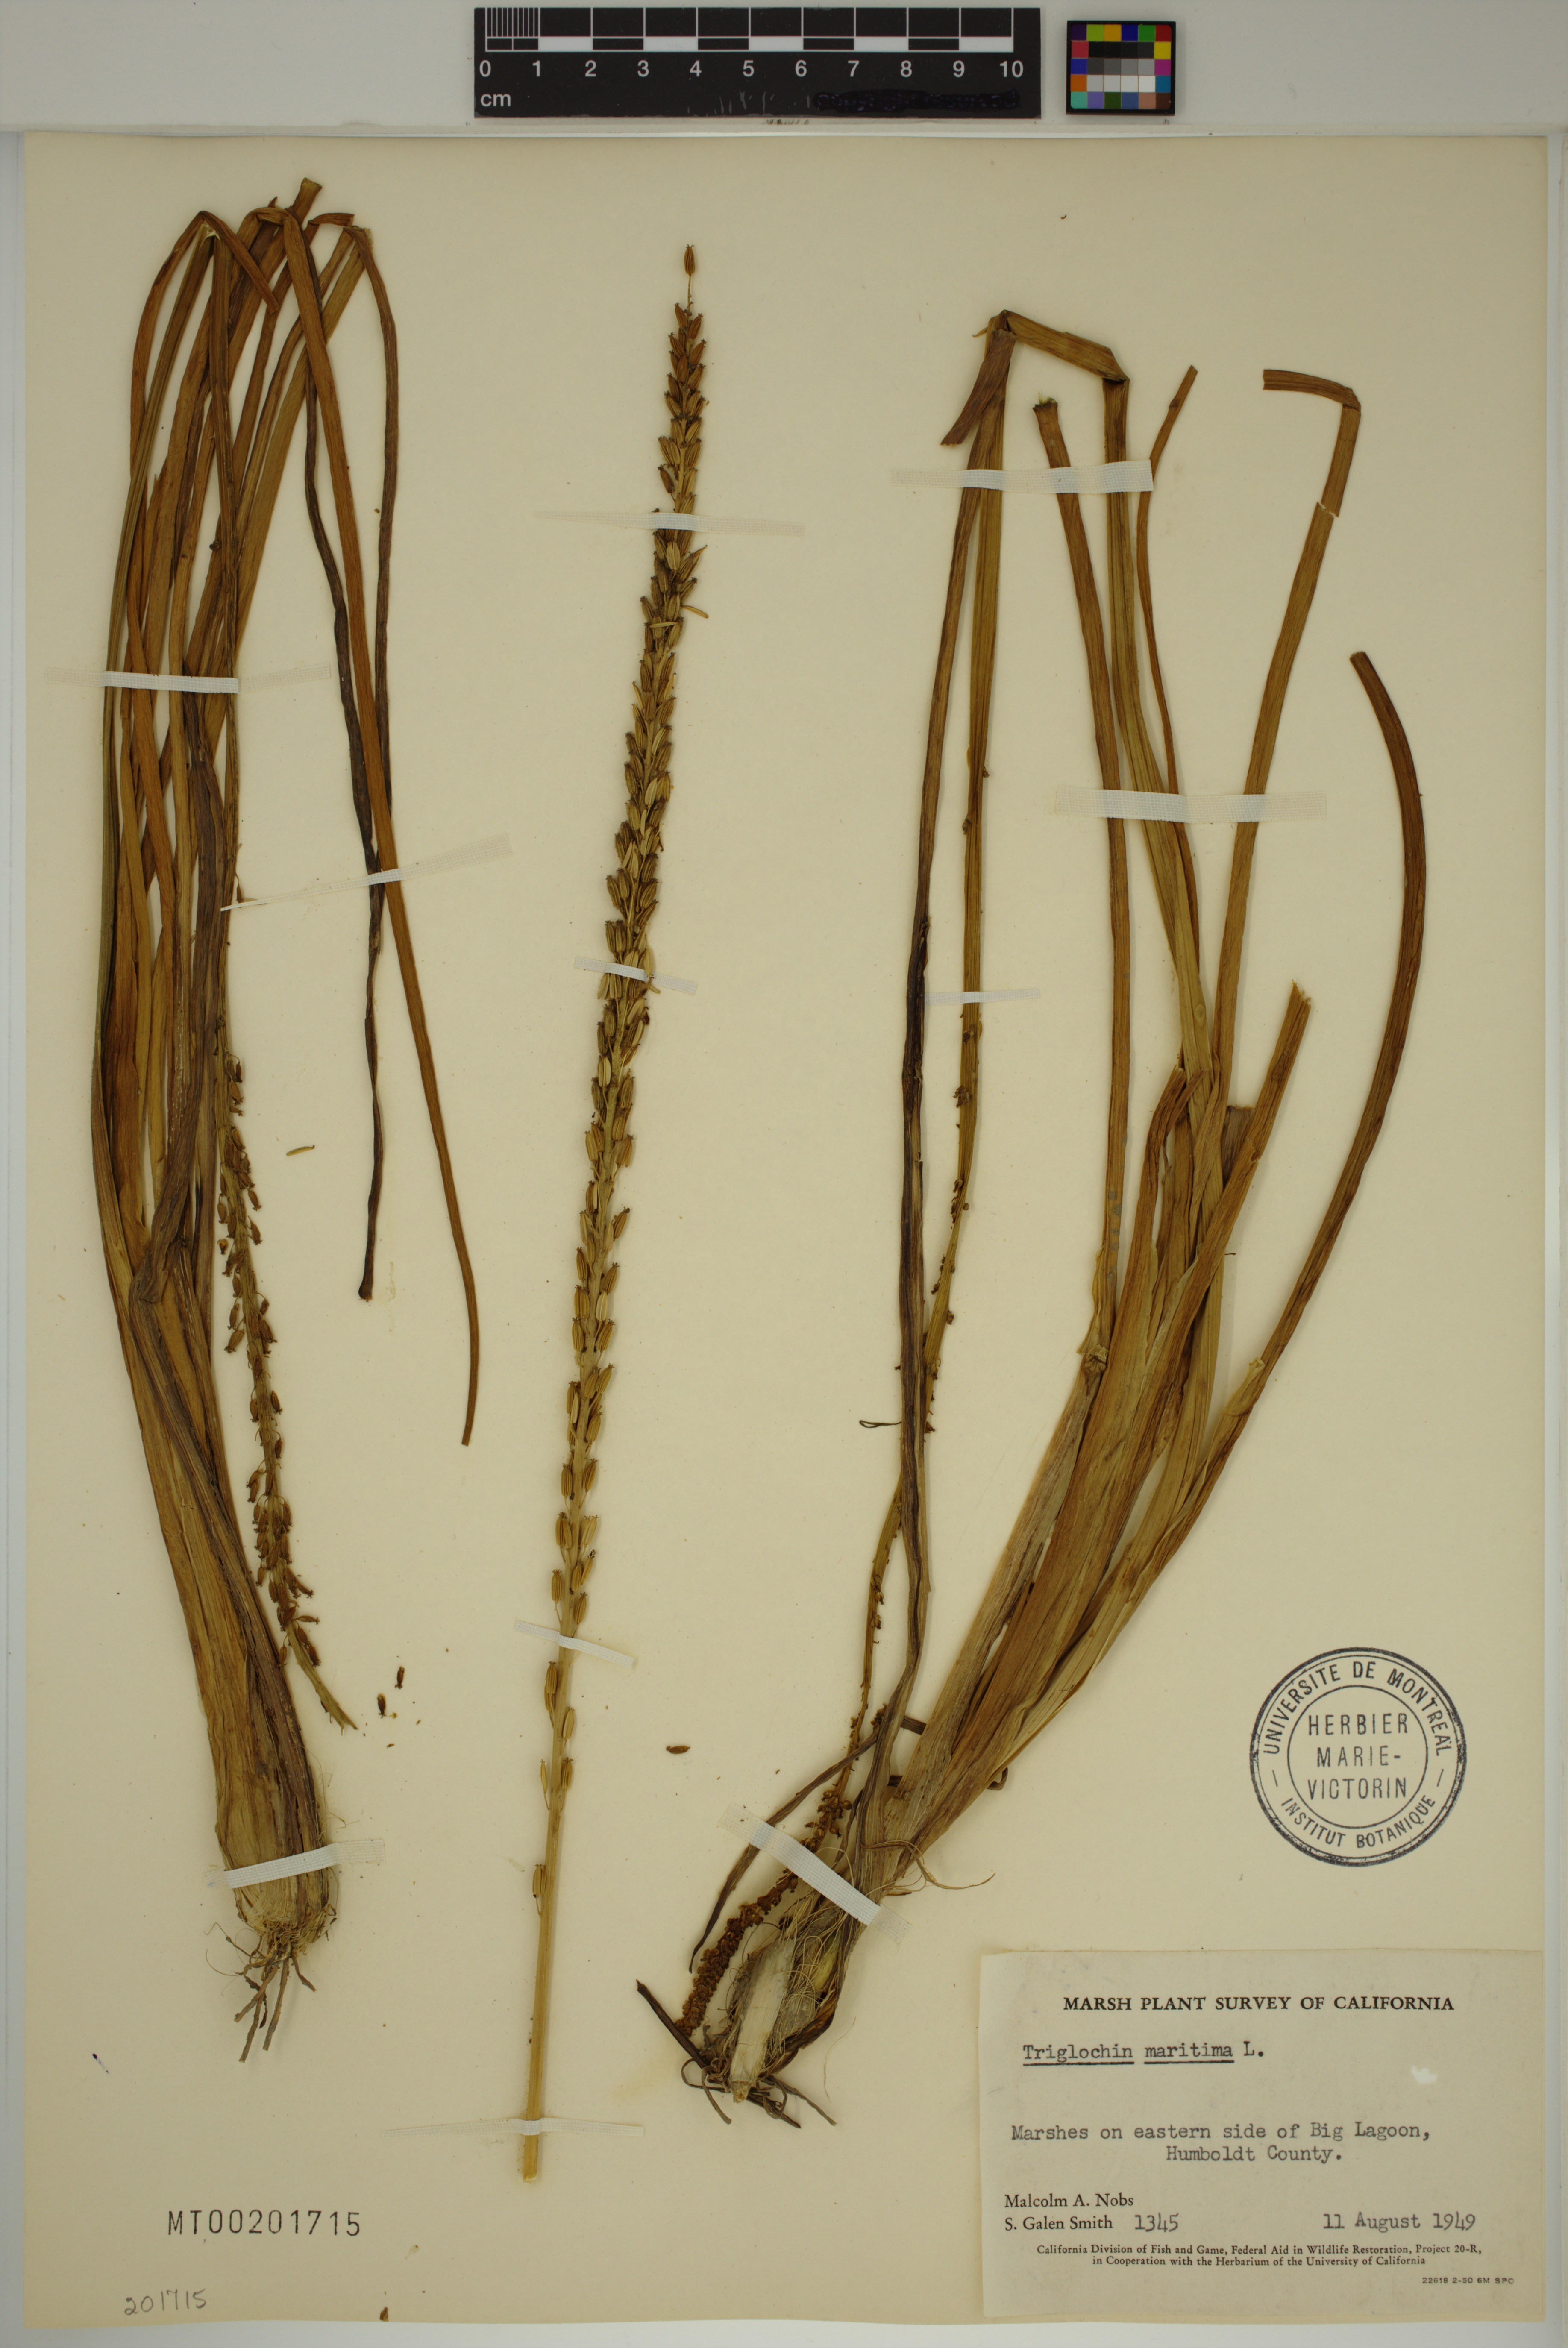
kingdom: Plantae
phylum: Tracheophyta
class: Liliopsida
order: Alismatales
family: Juncaginaceae
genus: Triglochin
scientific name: Triglochin maritima
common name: Sea arrowgrass
